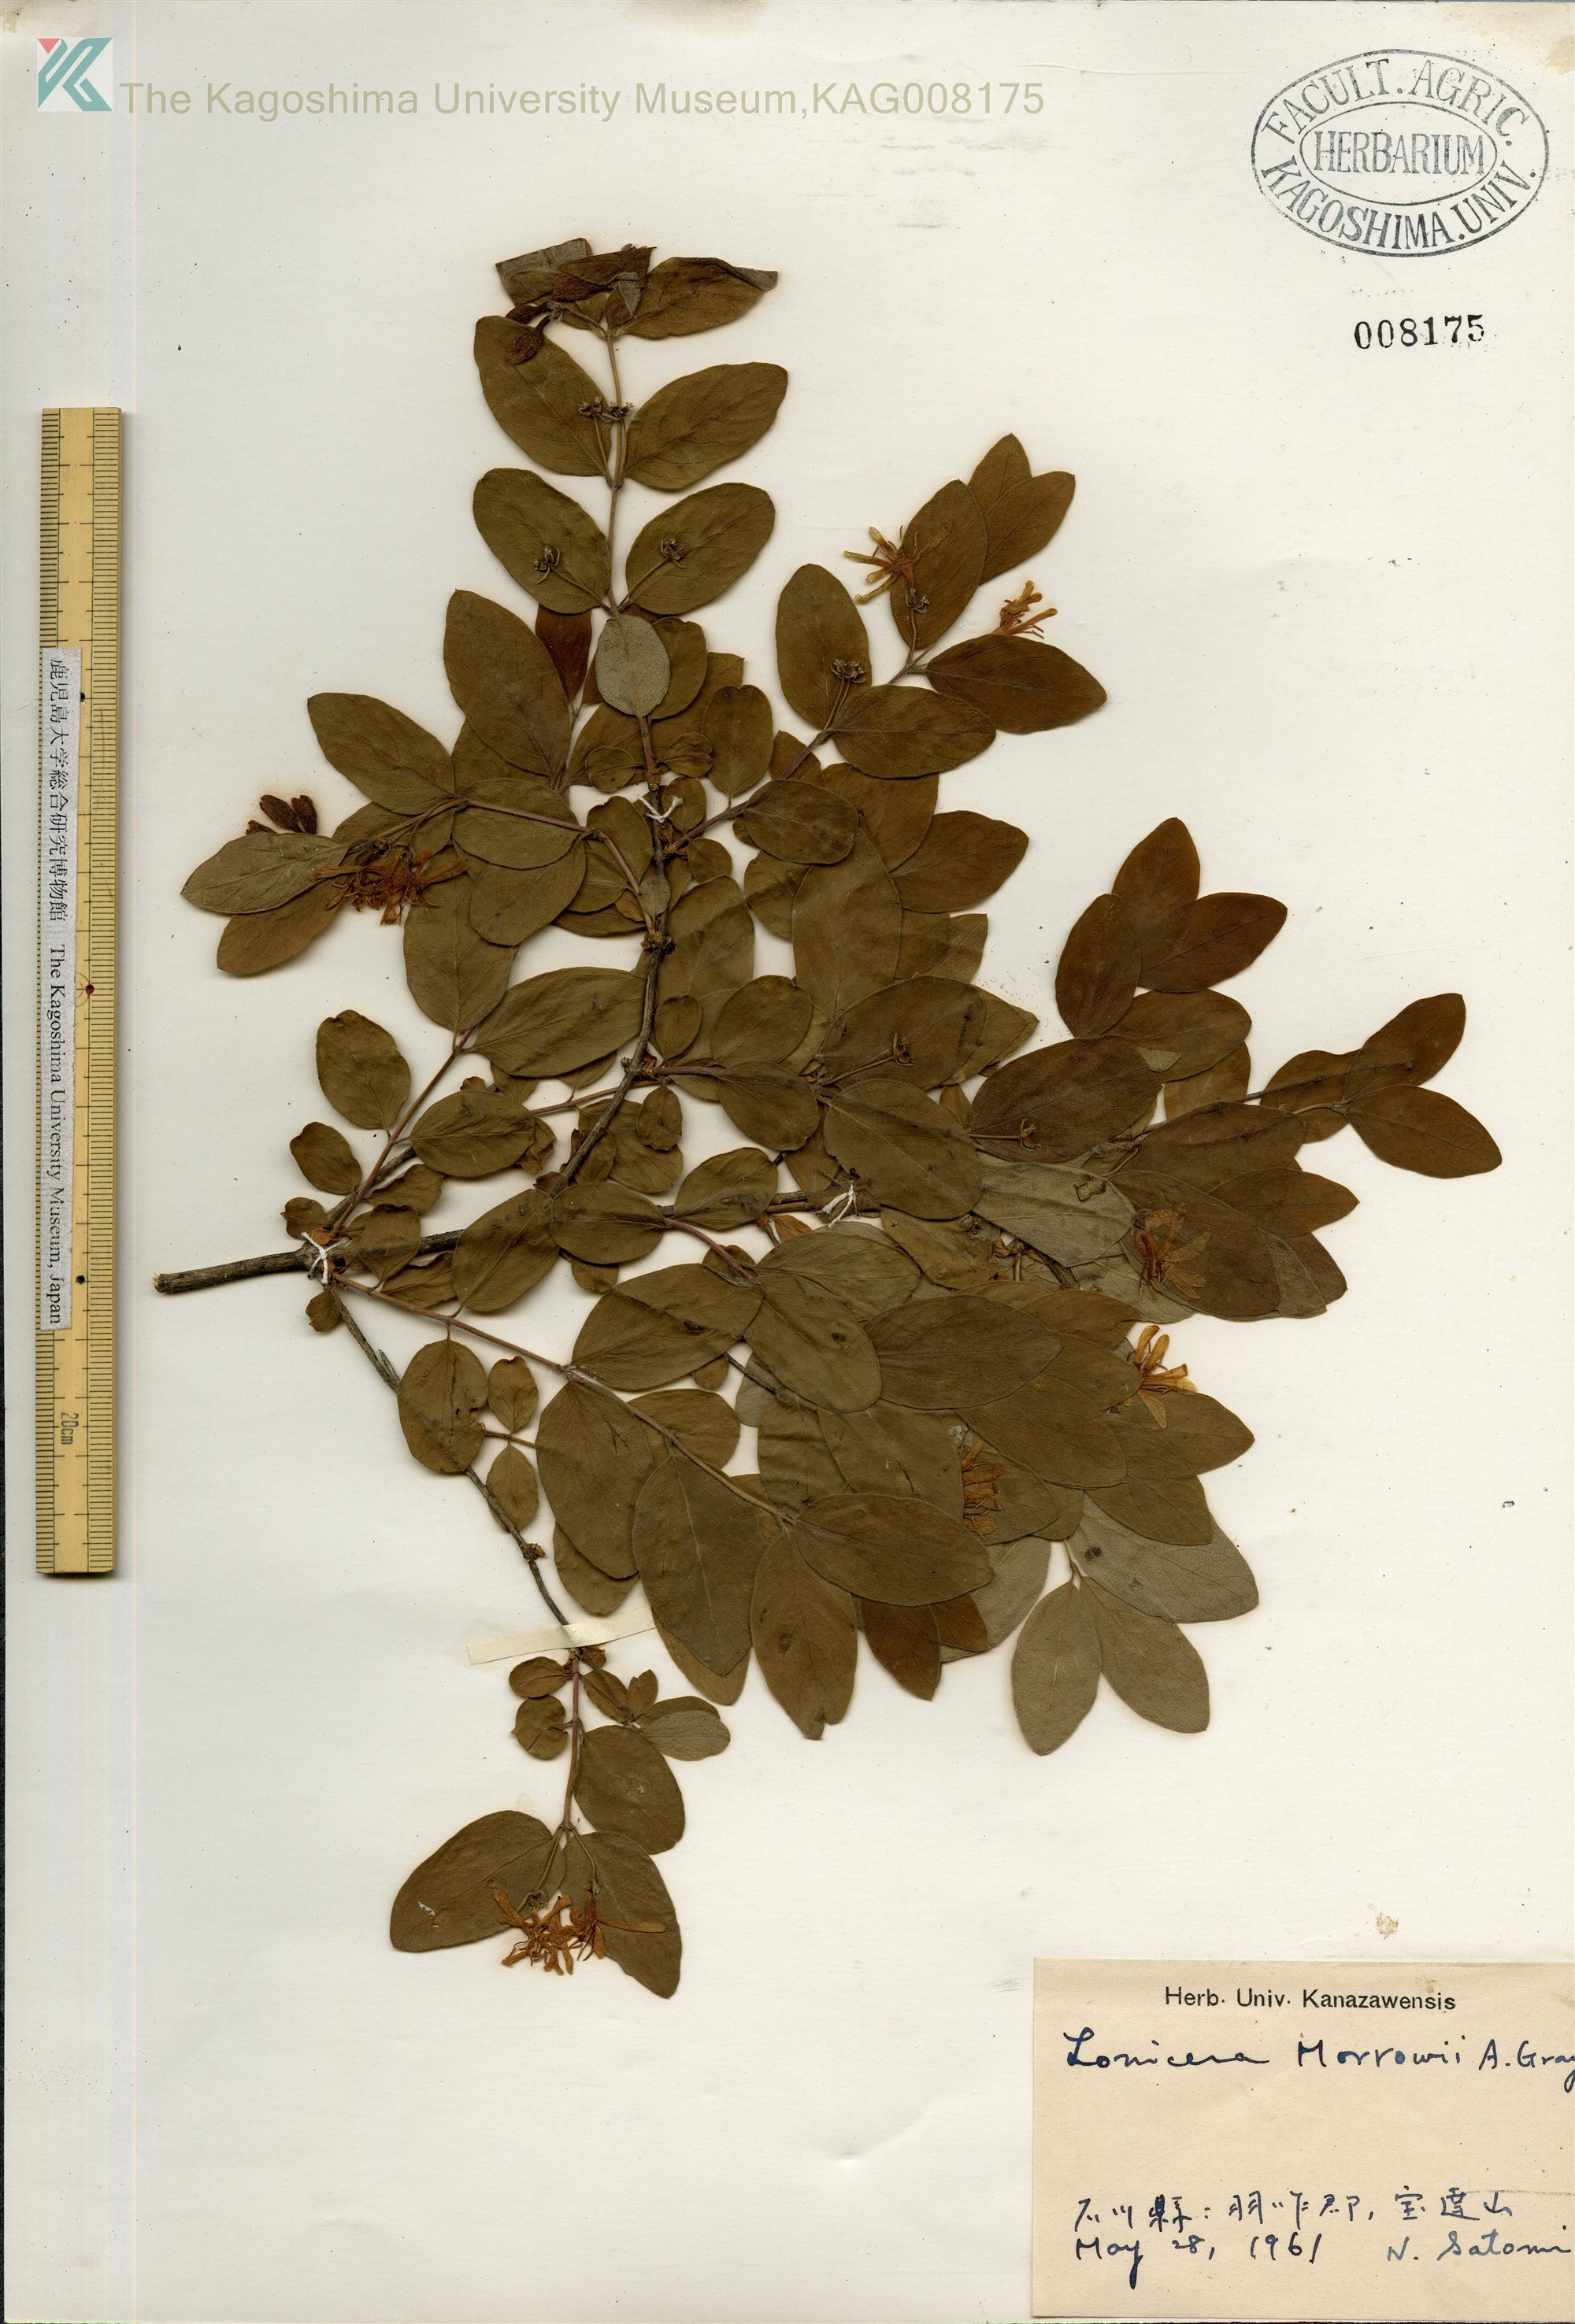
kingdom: Plantae
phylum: Tracheophyta
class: Magnoliopsida
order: Dipsacales
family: Caprifoliaceae
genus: Lonicera
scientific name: Lonicera morrowii
